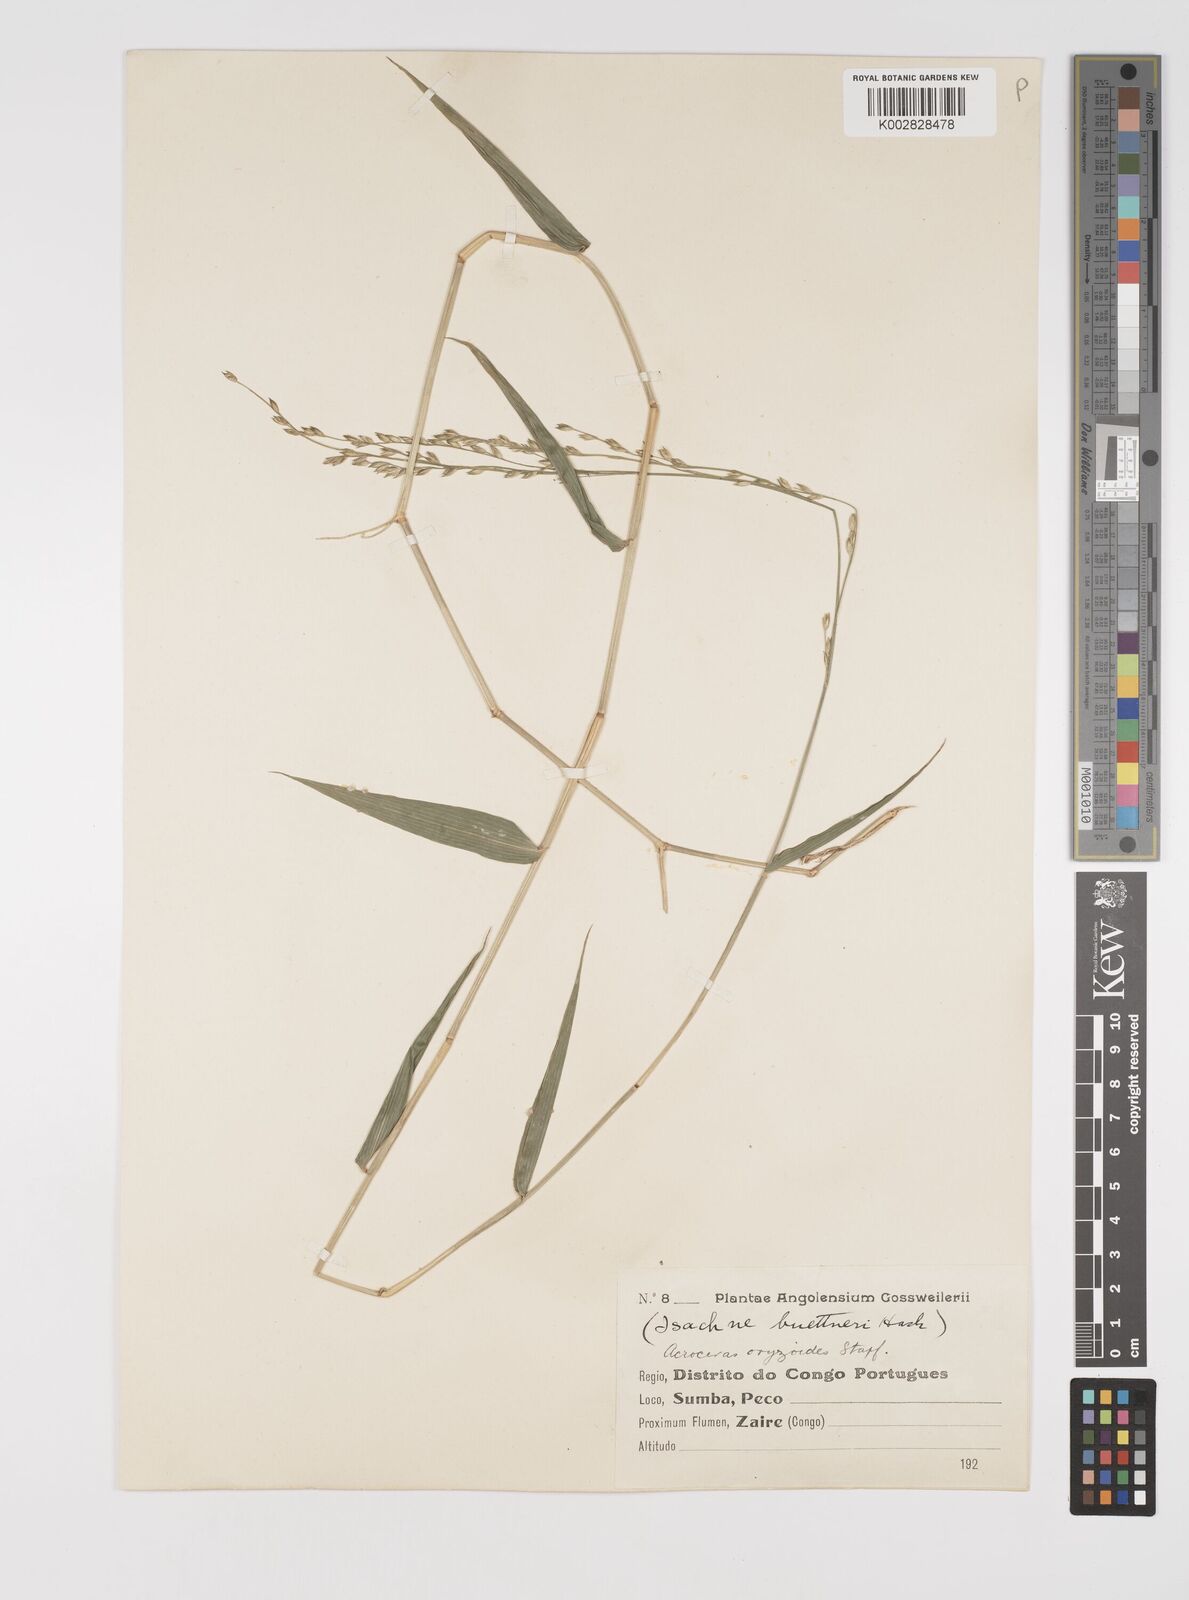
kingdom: Plantae
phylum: Tracheophyta
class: Liliopsida
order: Poales
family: Poaceae
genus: Acroceras
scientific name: Acroceras zizanioides
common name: Oat grass
